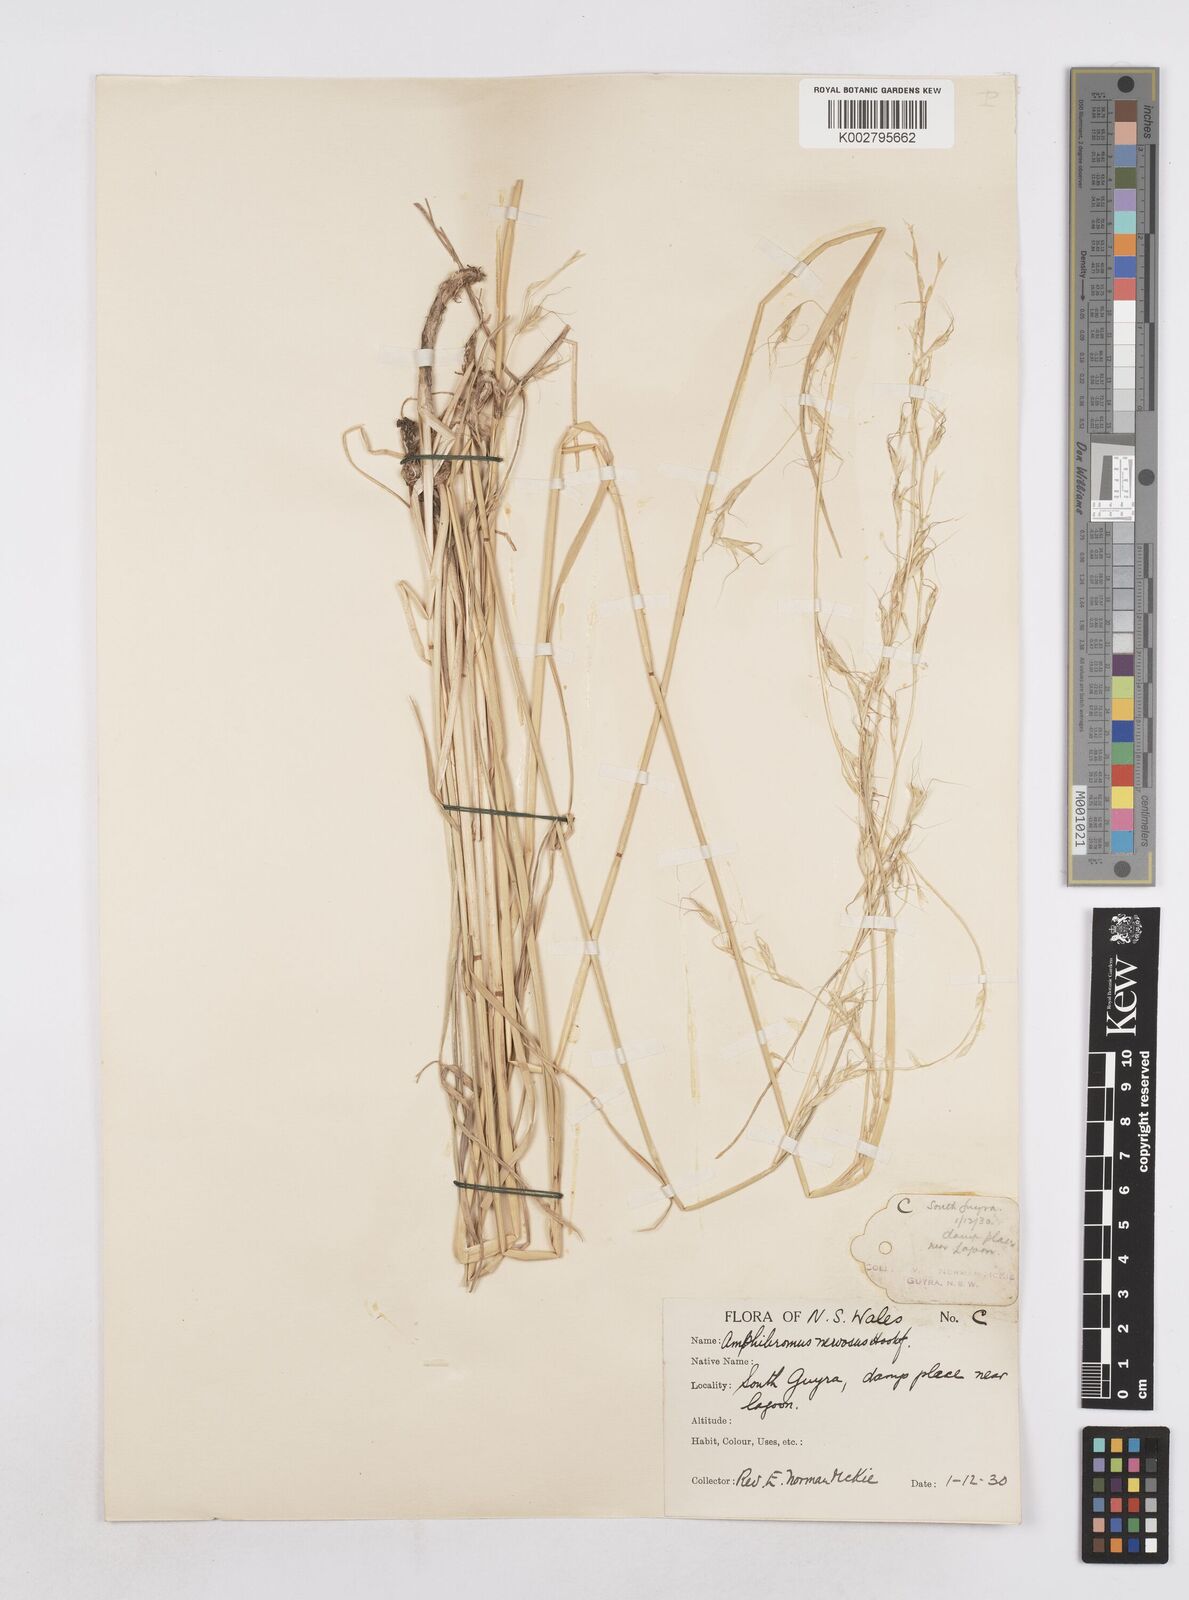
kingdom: Plantae
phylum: Tracheophyta
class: Liliopsida
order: Poales
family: Poaceae
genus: Amphibromus
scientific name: Amphibromus neesii
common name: Australian wallaby grass
